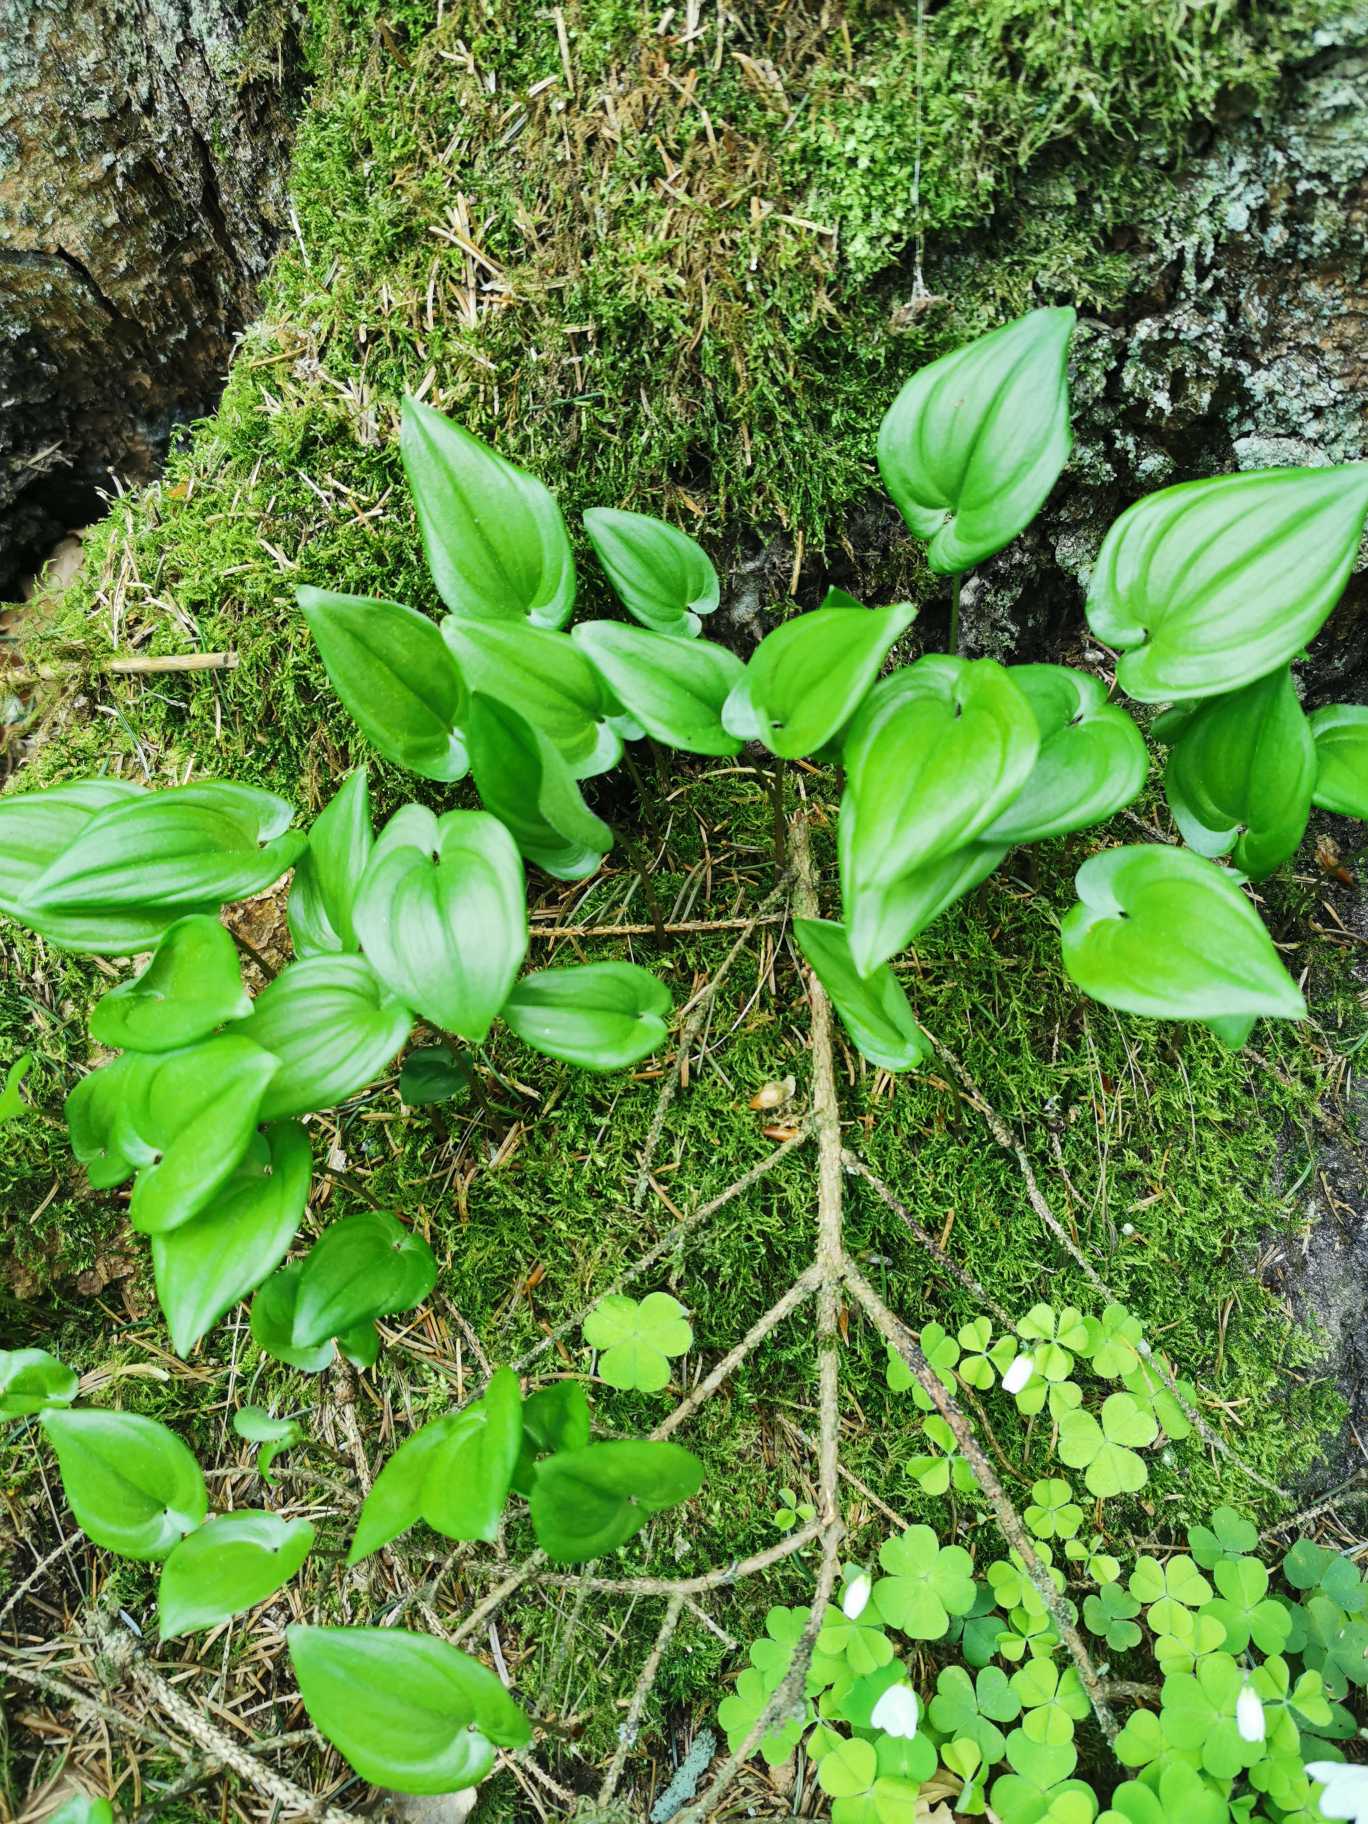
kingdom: Plantae
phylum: Tracheophyta
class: Liliopsida
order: Asparagales
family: Asparagaceae
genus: Maianthemum
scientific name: Maianthemum bifolium
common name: Majblomst
